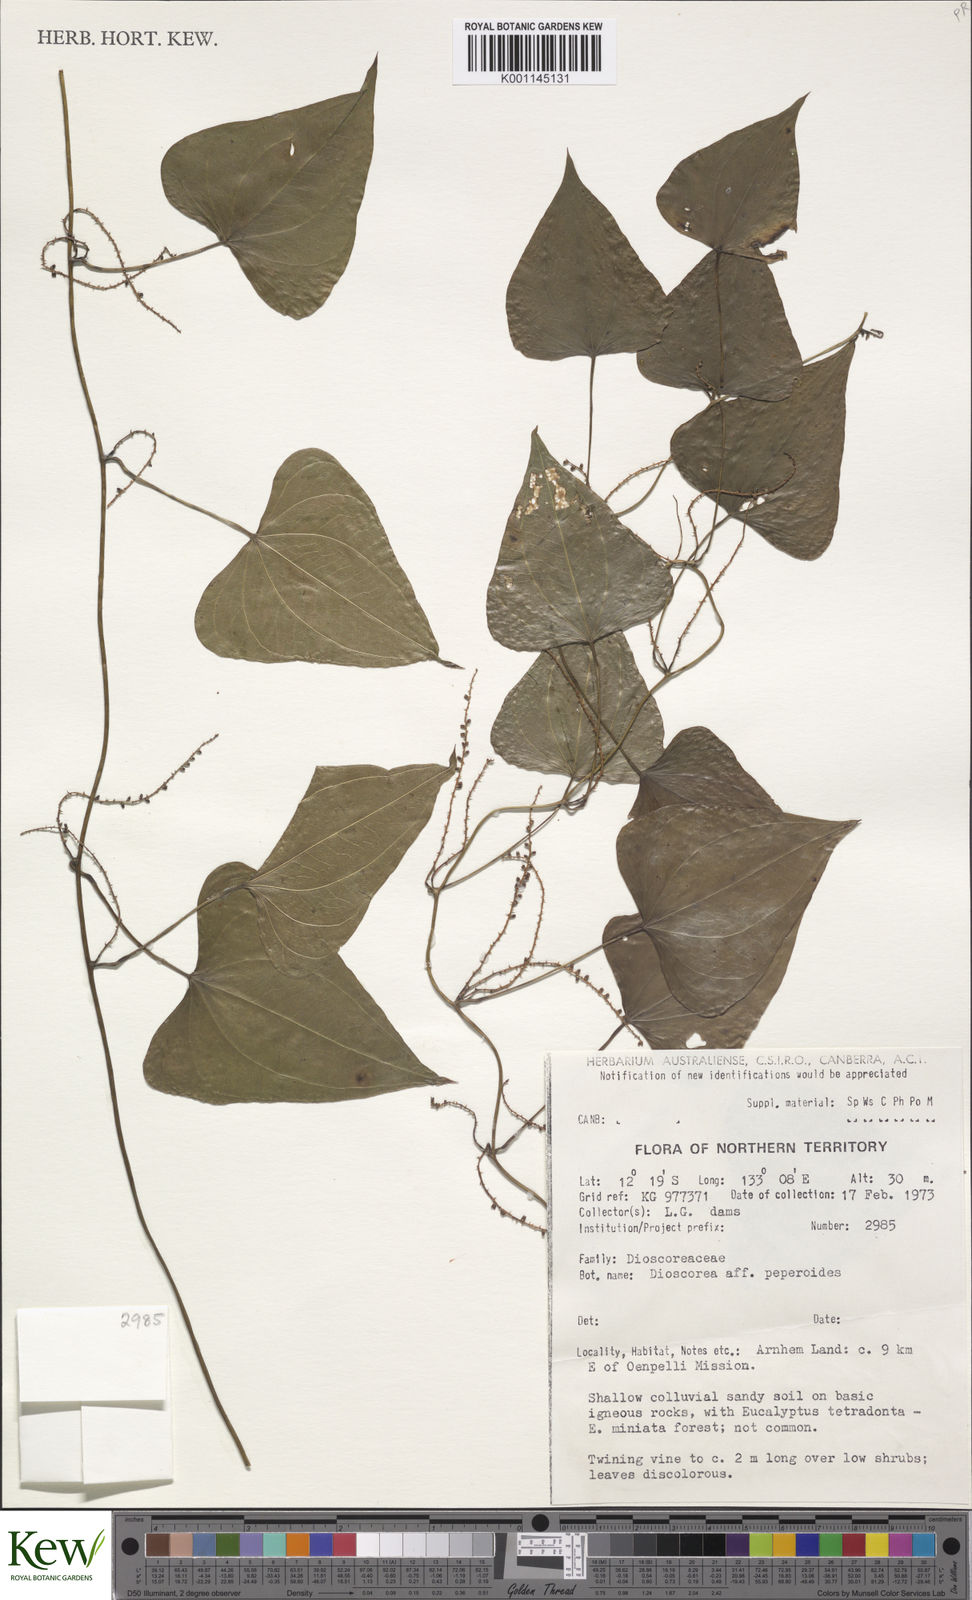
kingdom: Plantae
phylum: Tracheophyta
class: Liliopsida
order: Dioscoreales
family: Dioscoreaceae
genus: Dioscorea
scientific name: Dioscorea peperoides
